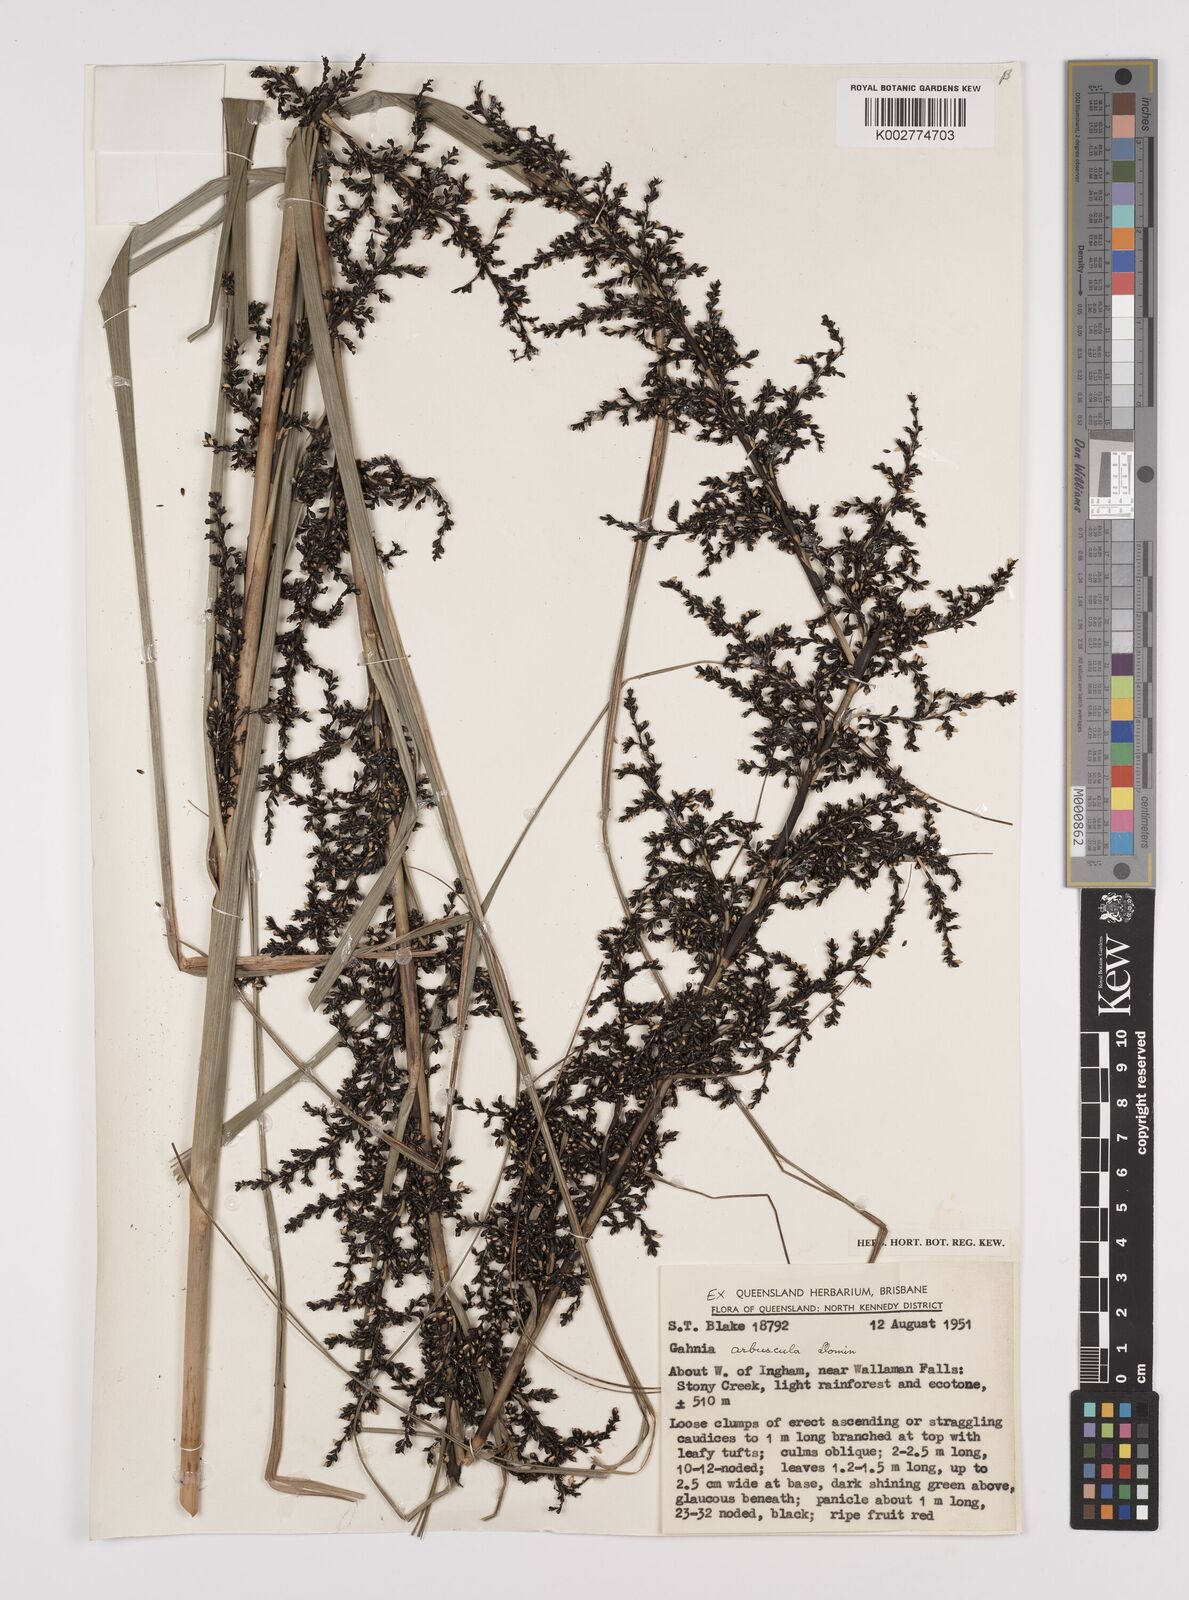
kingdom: Plantae
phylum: Tracheophyta
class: Liliopsida
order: Poales
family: Cyperaceae
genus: Gahnia
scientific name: Gahnia sieberiana
